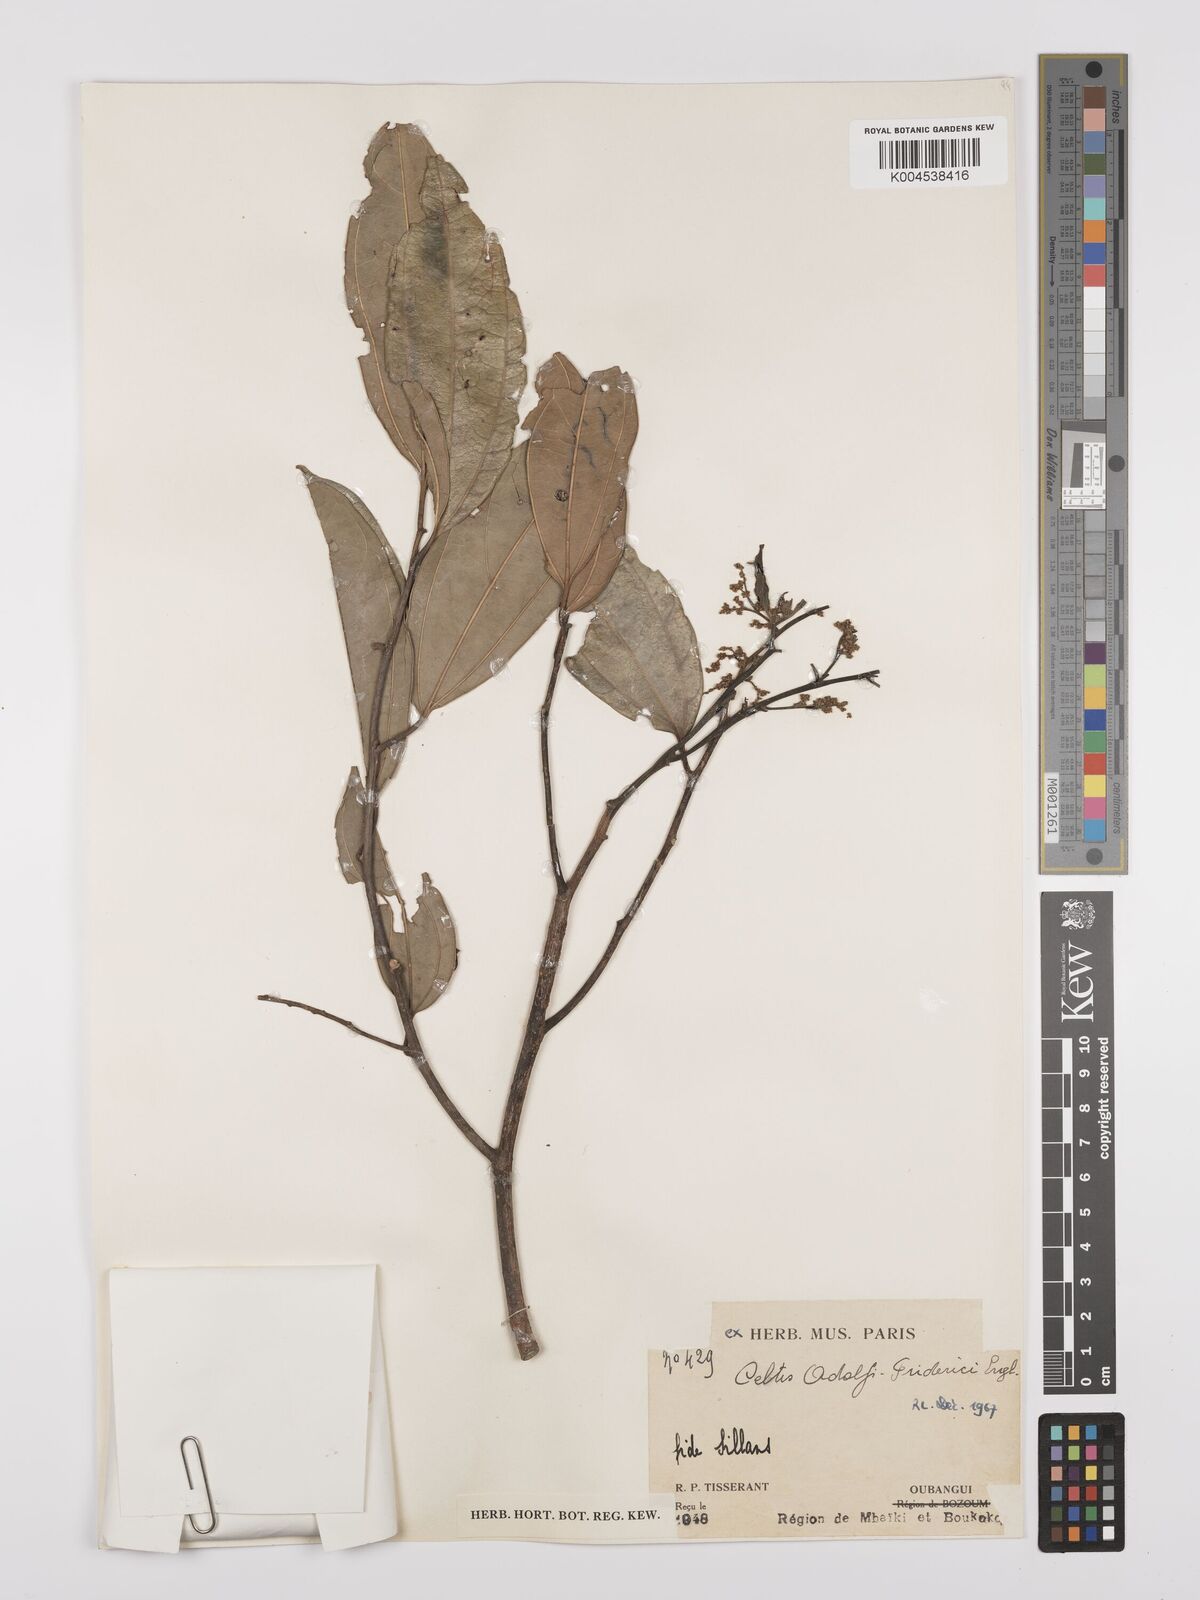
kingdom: Plantae
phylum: Tracheophyta
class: Magnoliopsida
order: Rosales
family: Cannabaceae
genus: Celtis
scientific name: Celtis adolfi-friderici
